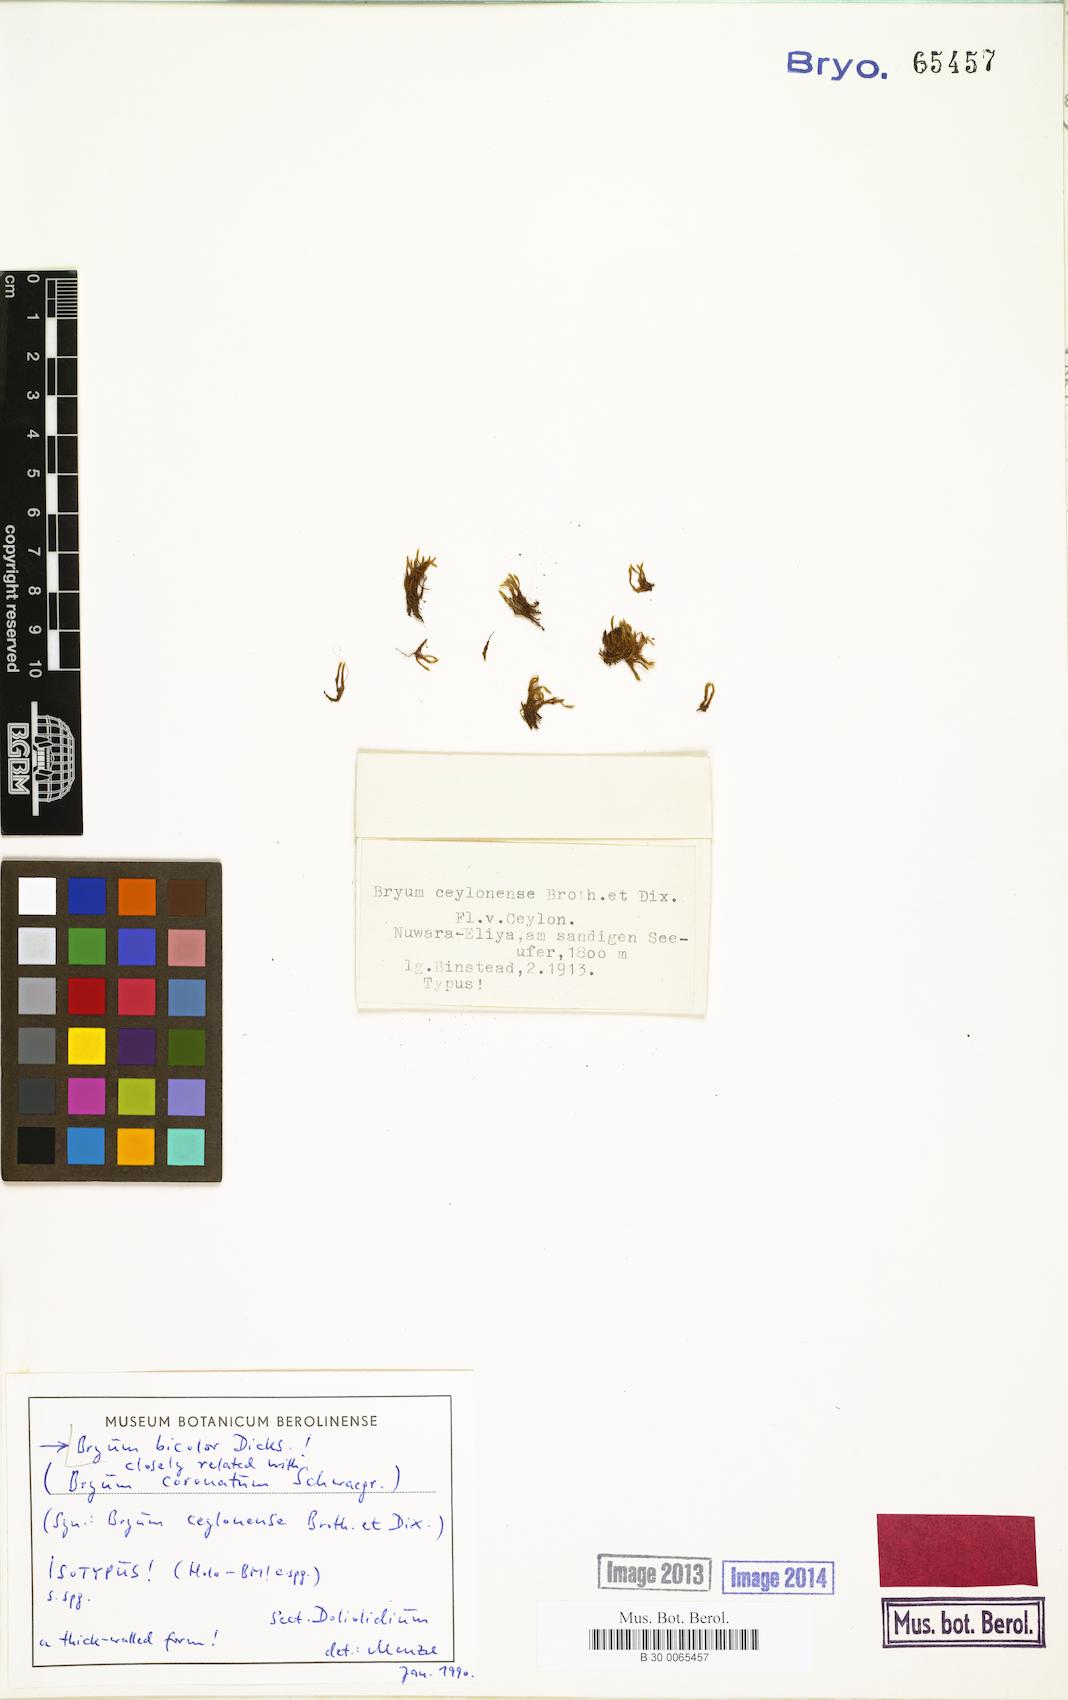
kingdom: Plantae
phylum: Bryophyta
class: Bryopsida
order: Bryales
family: Bryaceae
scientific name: Bryaceae
